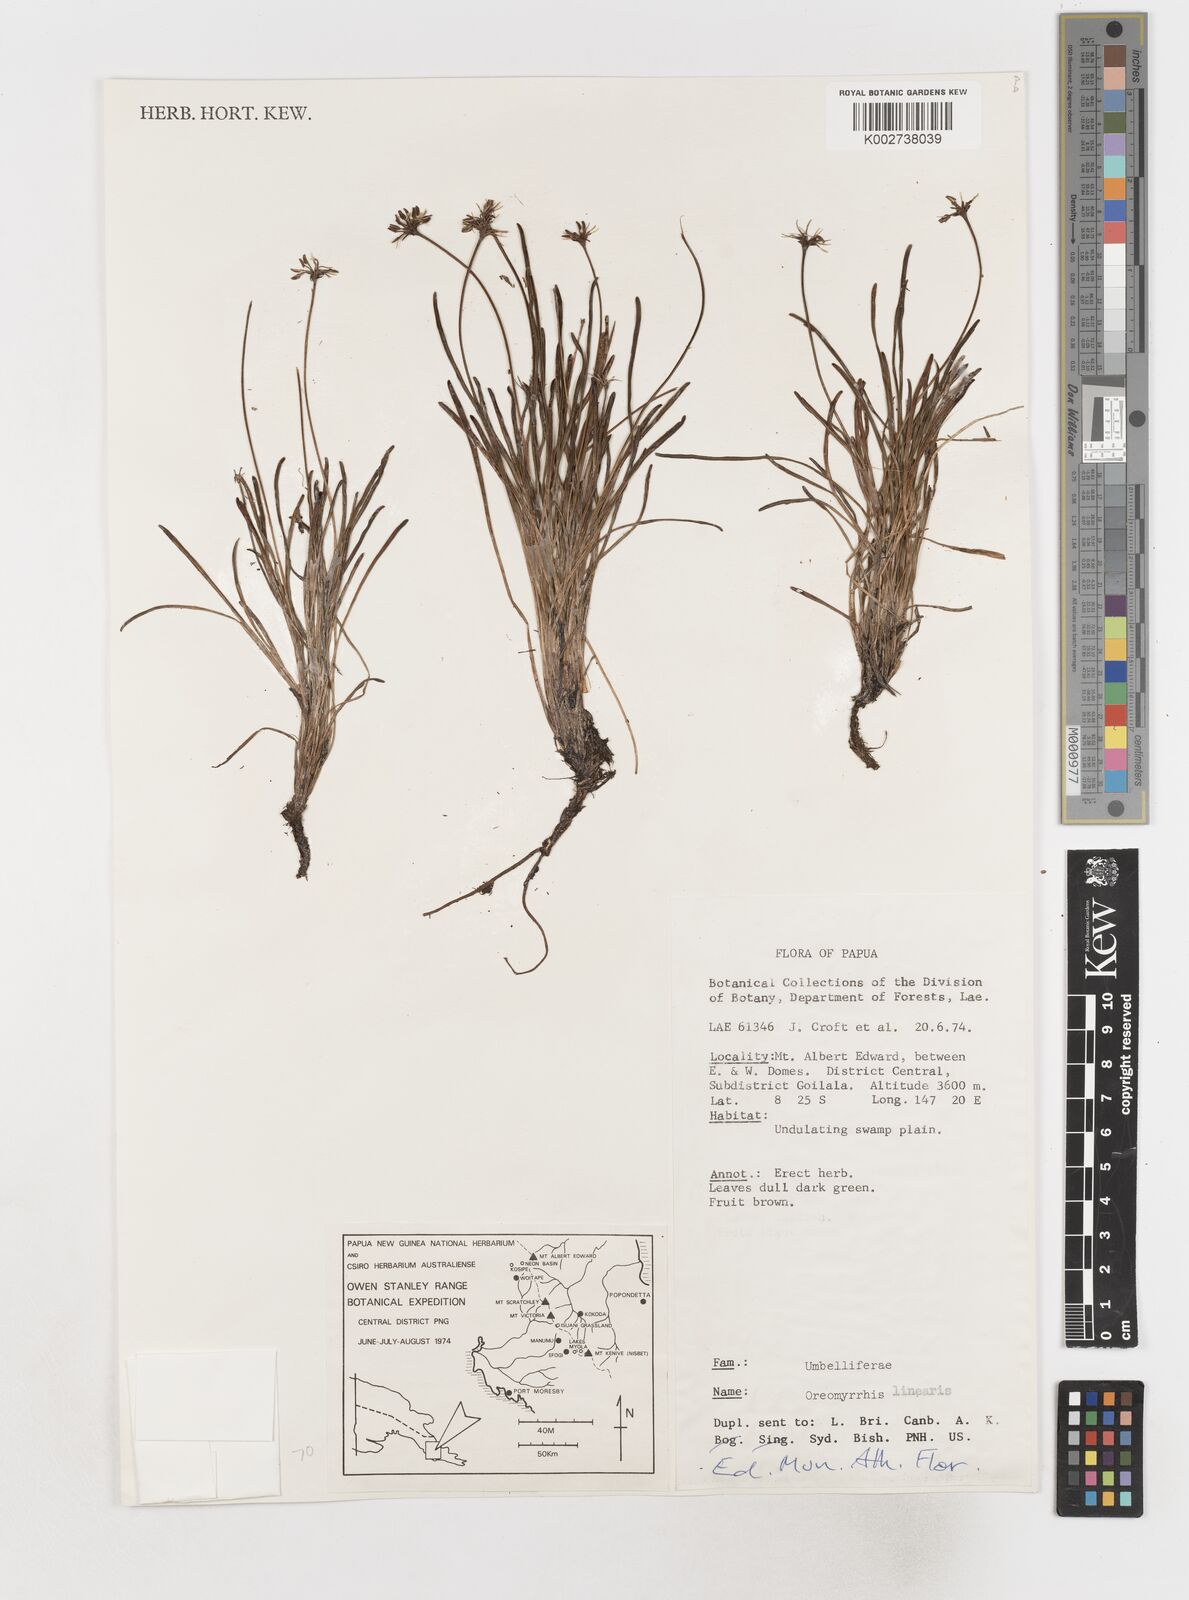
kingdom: Plantae
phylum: Tracheophyta
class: Magnoliopsida
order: Apiales
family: Apiaceae
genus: Chaerophyllum
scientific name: Chaerophyllum lineare
